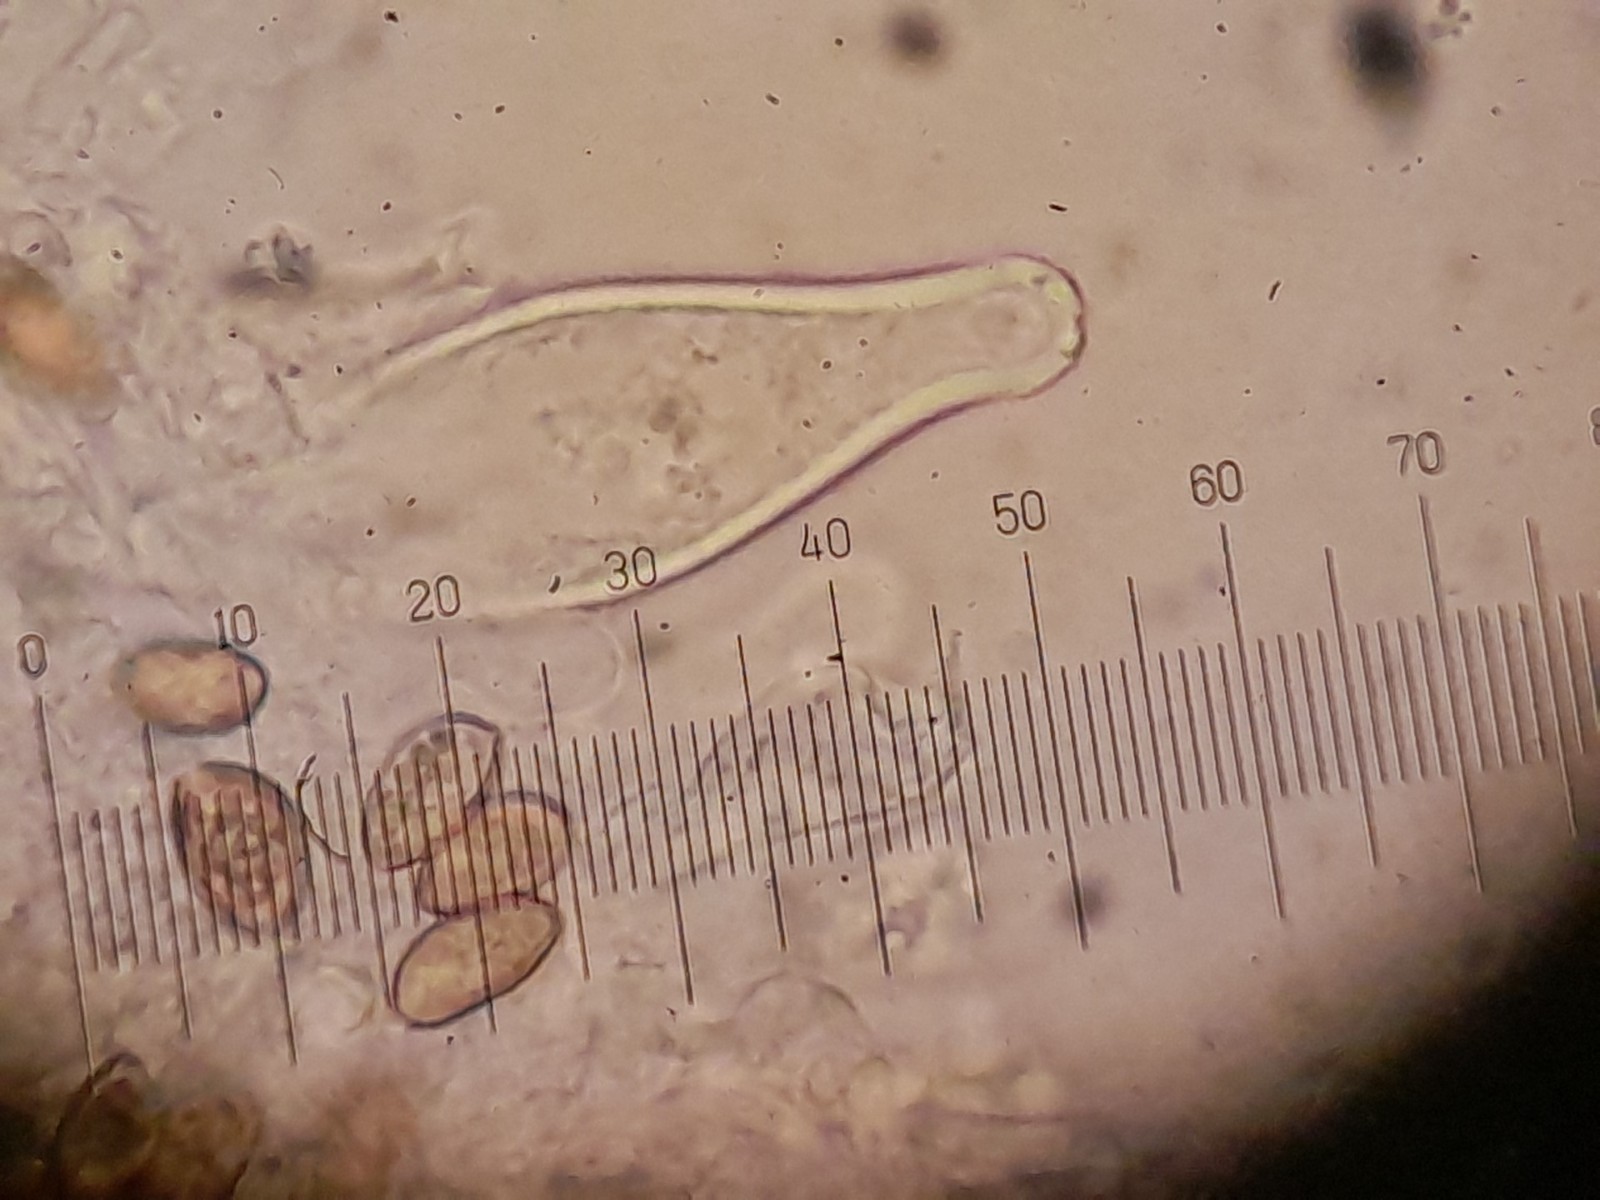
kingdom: Fungi
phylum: Basidiomycota
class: Agaricomycetes
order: Agaricales
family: Inocybaceae
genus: Inocybe
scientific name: Inocybe
